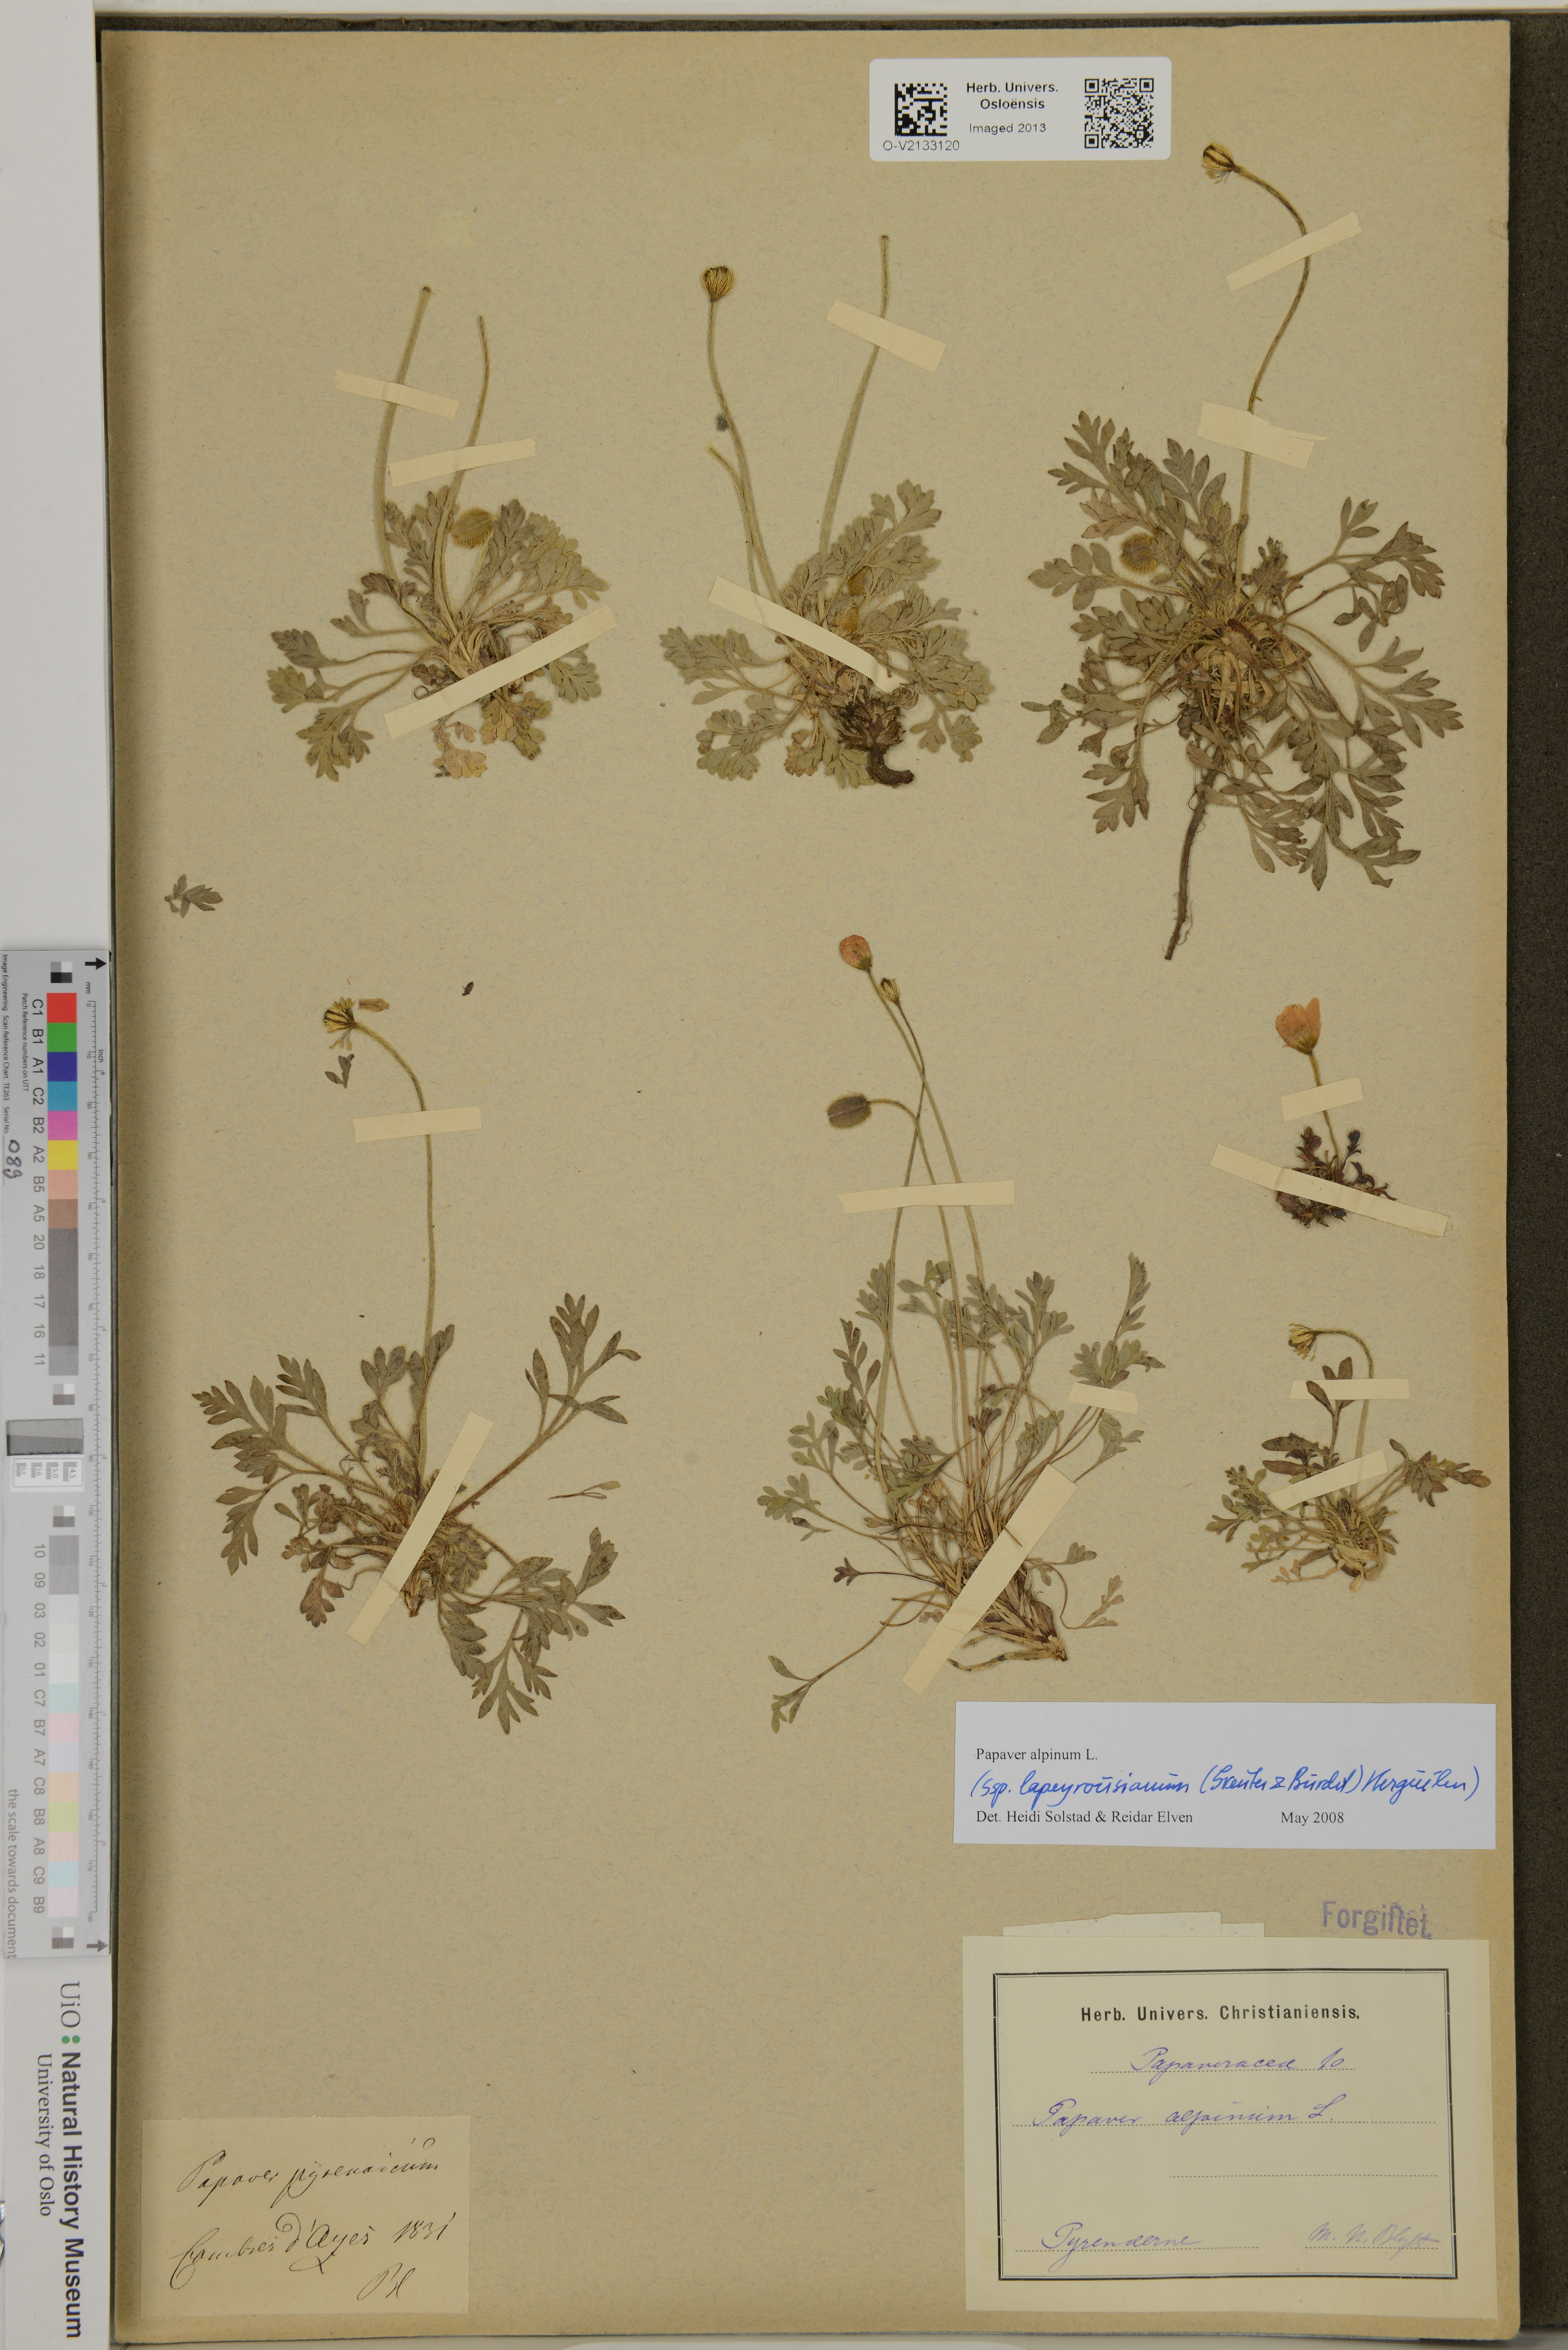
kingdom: Plantae
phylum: Tracheophyta
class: Magnoliopsida
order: Ranunculales
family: Papaveraceae
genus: Papaver
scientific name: Papaver alpinum
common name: Austrian poppy
